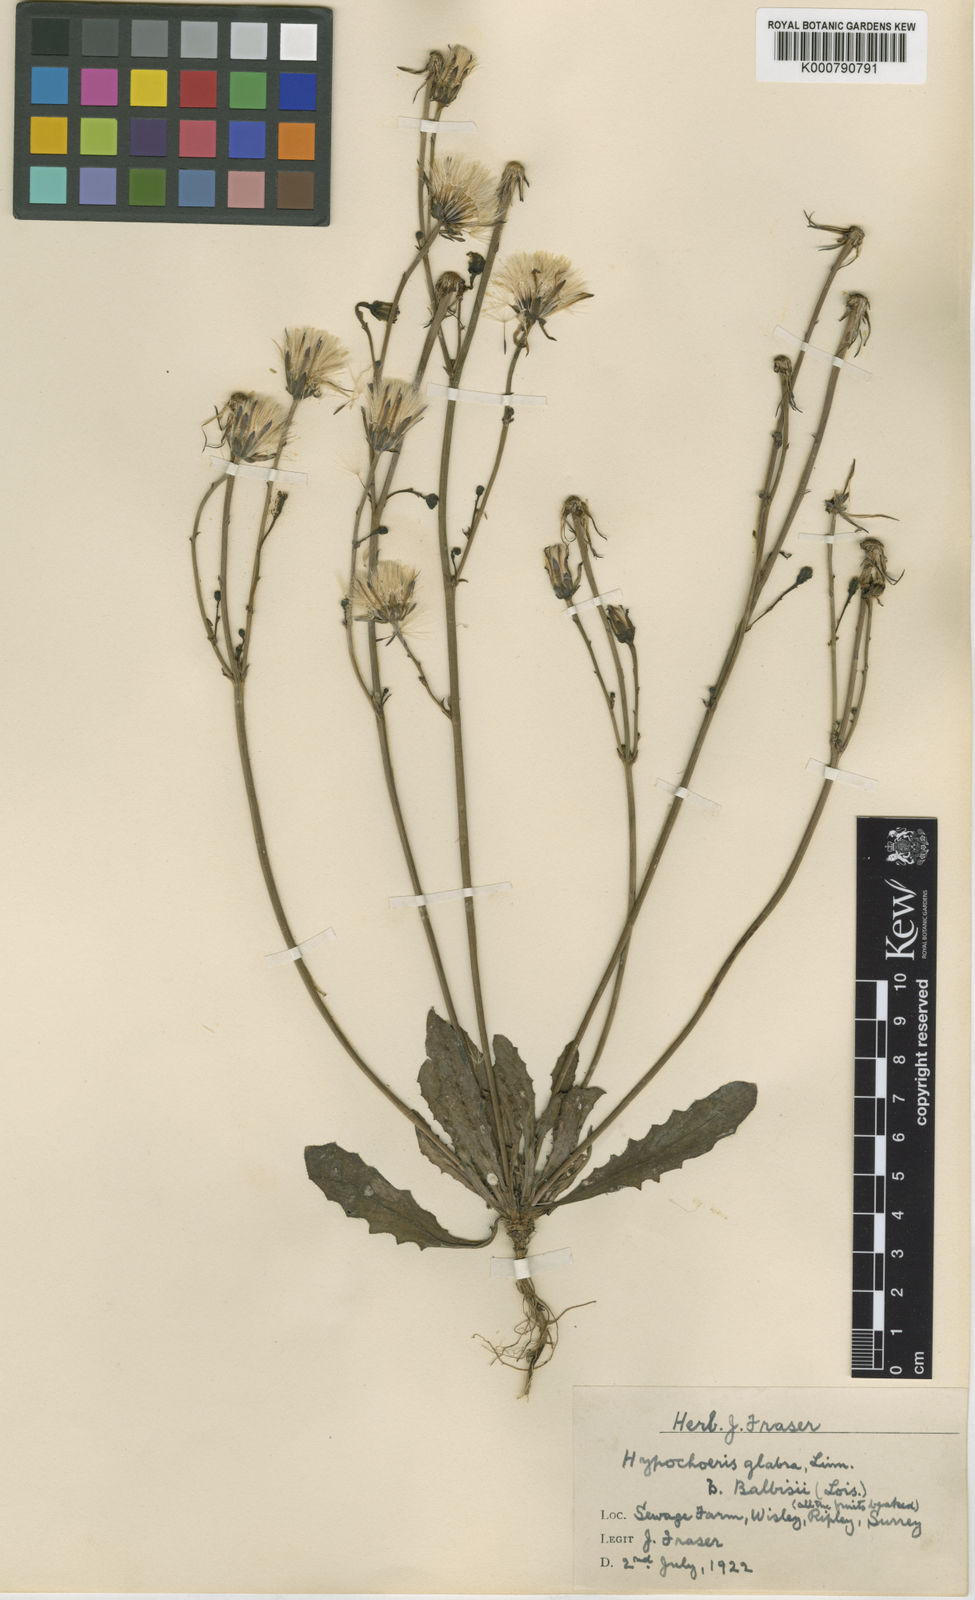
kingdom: Plantae
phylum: Tracheophyta
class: Magnoliopsida
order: Asterales
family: Asteraceae
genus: Hypochaeris
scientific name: Hypochaeris glabra
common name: Smooth catsear
